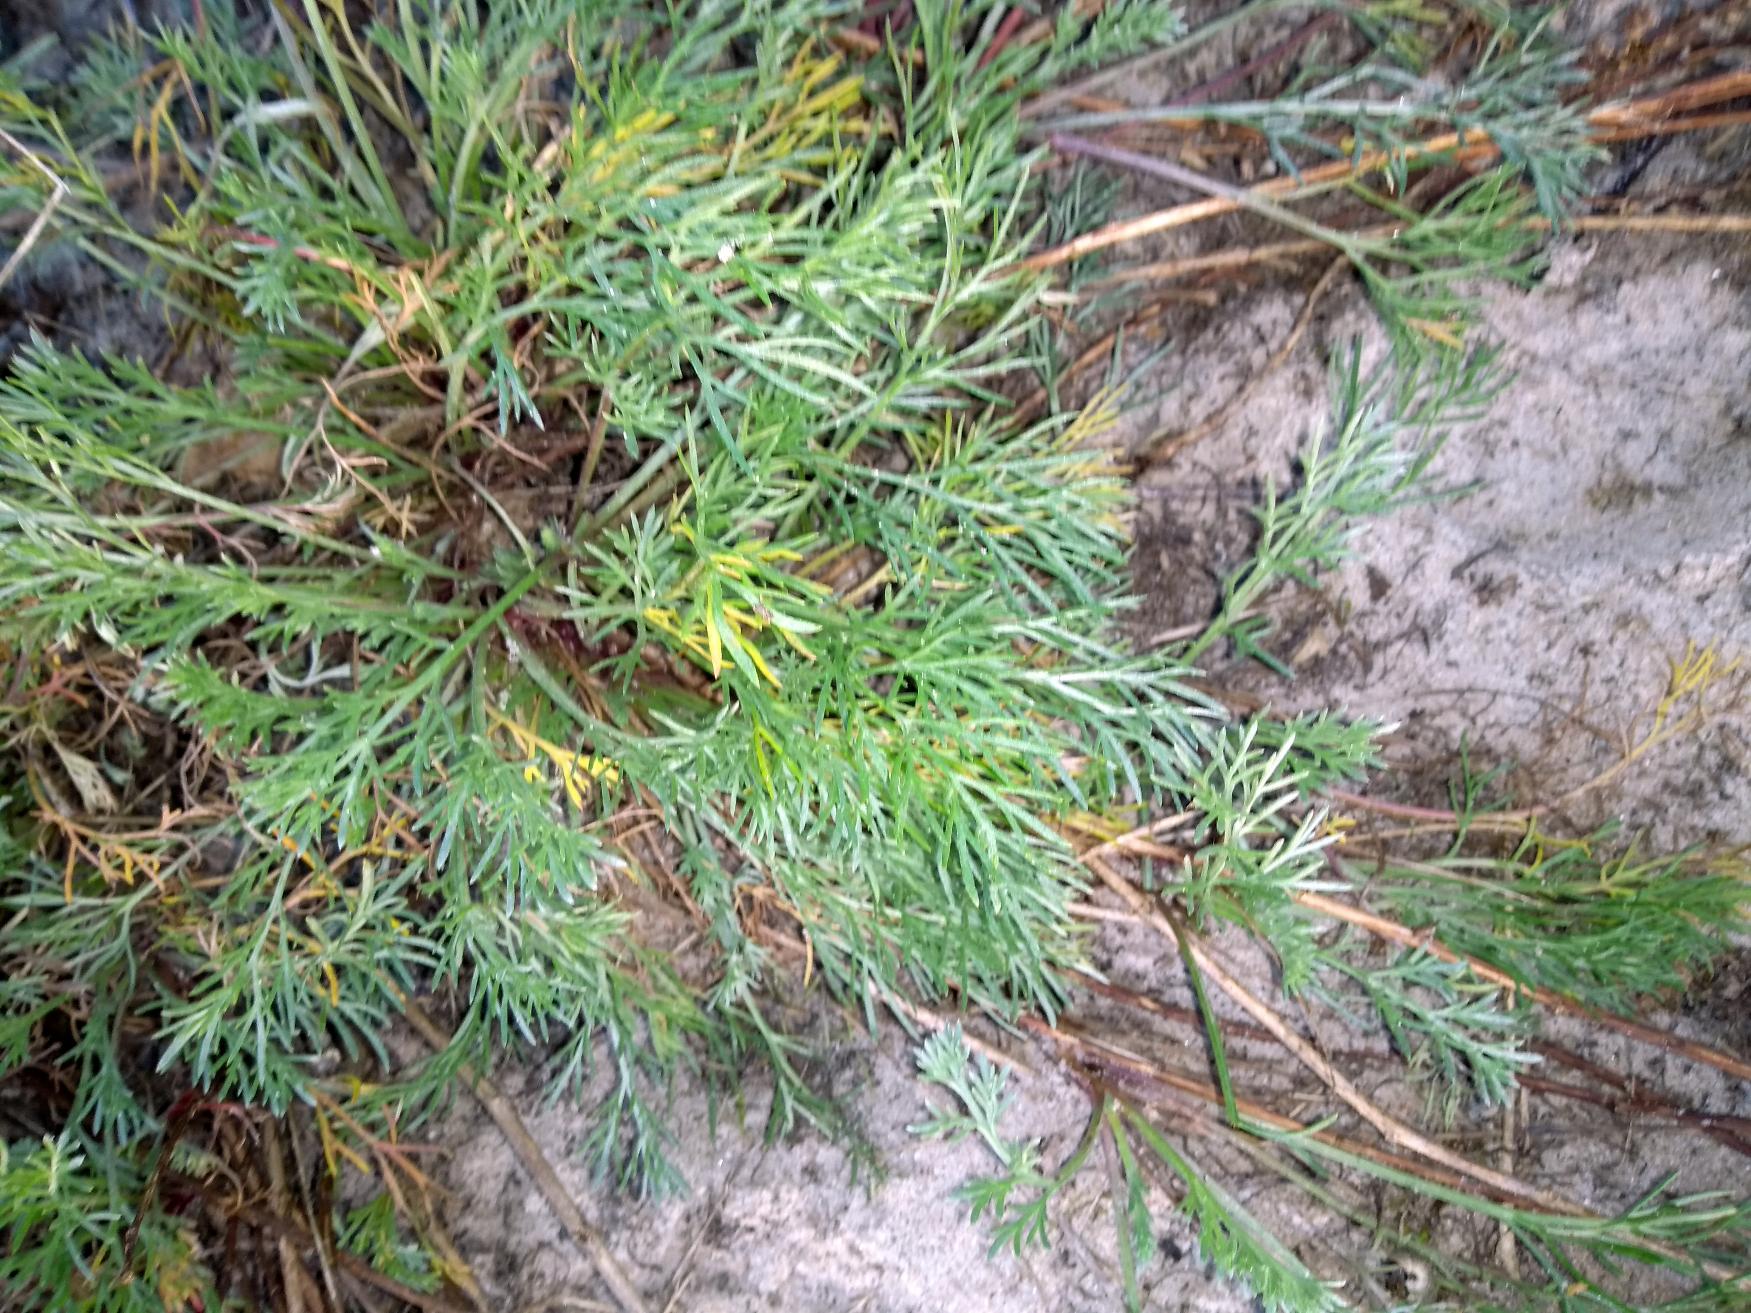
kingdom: Plantae
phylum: Tracheophyta
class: Magnoliopsida
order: Asterales
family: Asteraceae
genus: Artemisia
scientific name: Artemisia campestris
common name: Mark-bynke
